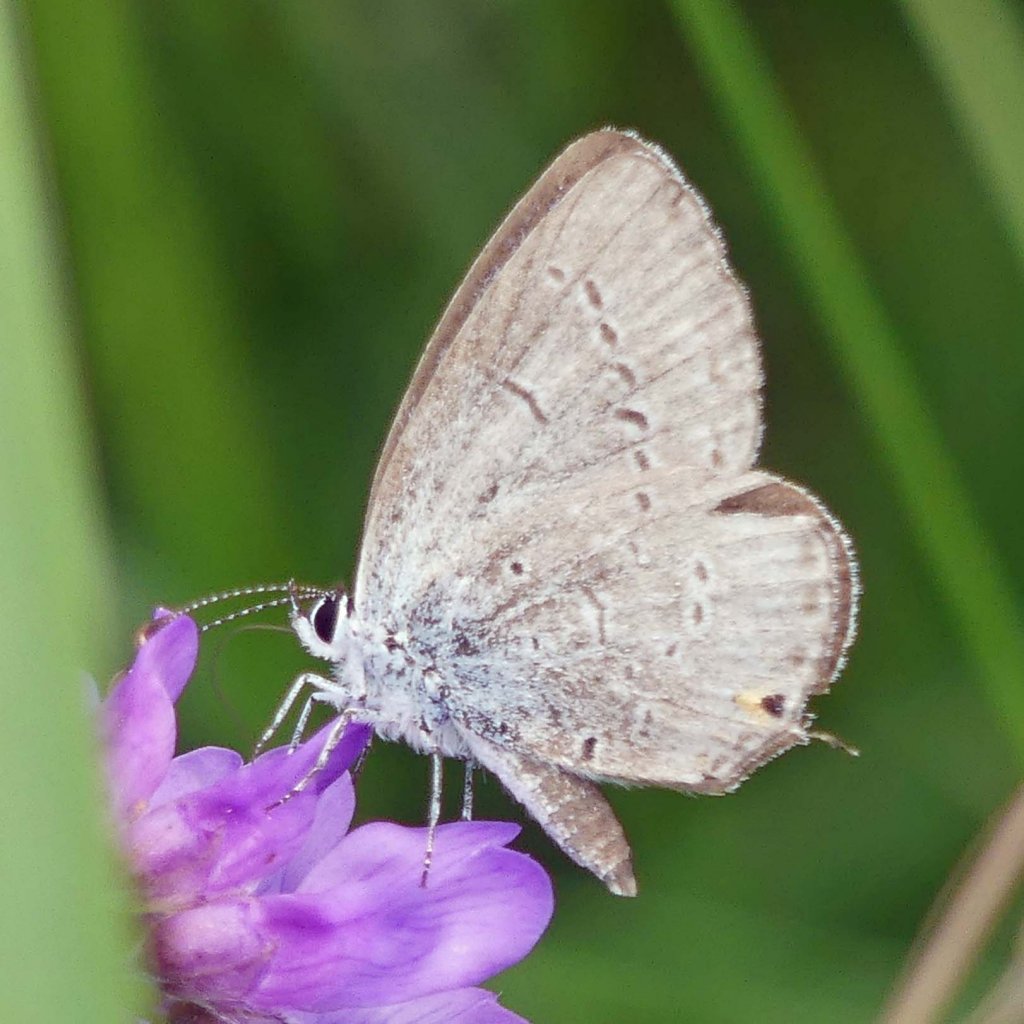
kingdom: Animalia
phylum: Arthropoda
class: Insecta
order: Lepidoptera
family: Lycaenidae
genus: Elkalyce
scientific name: Elkalyce comyntas
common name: Eastern Tailed-Blue
